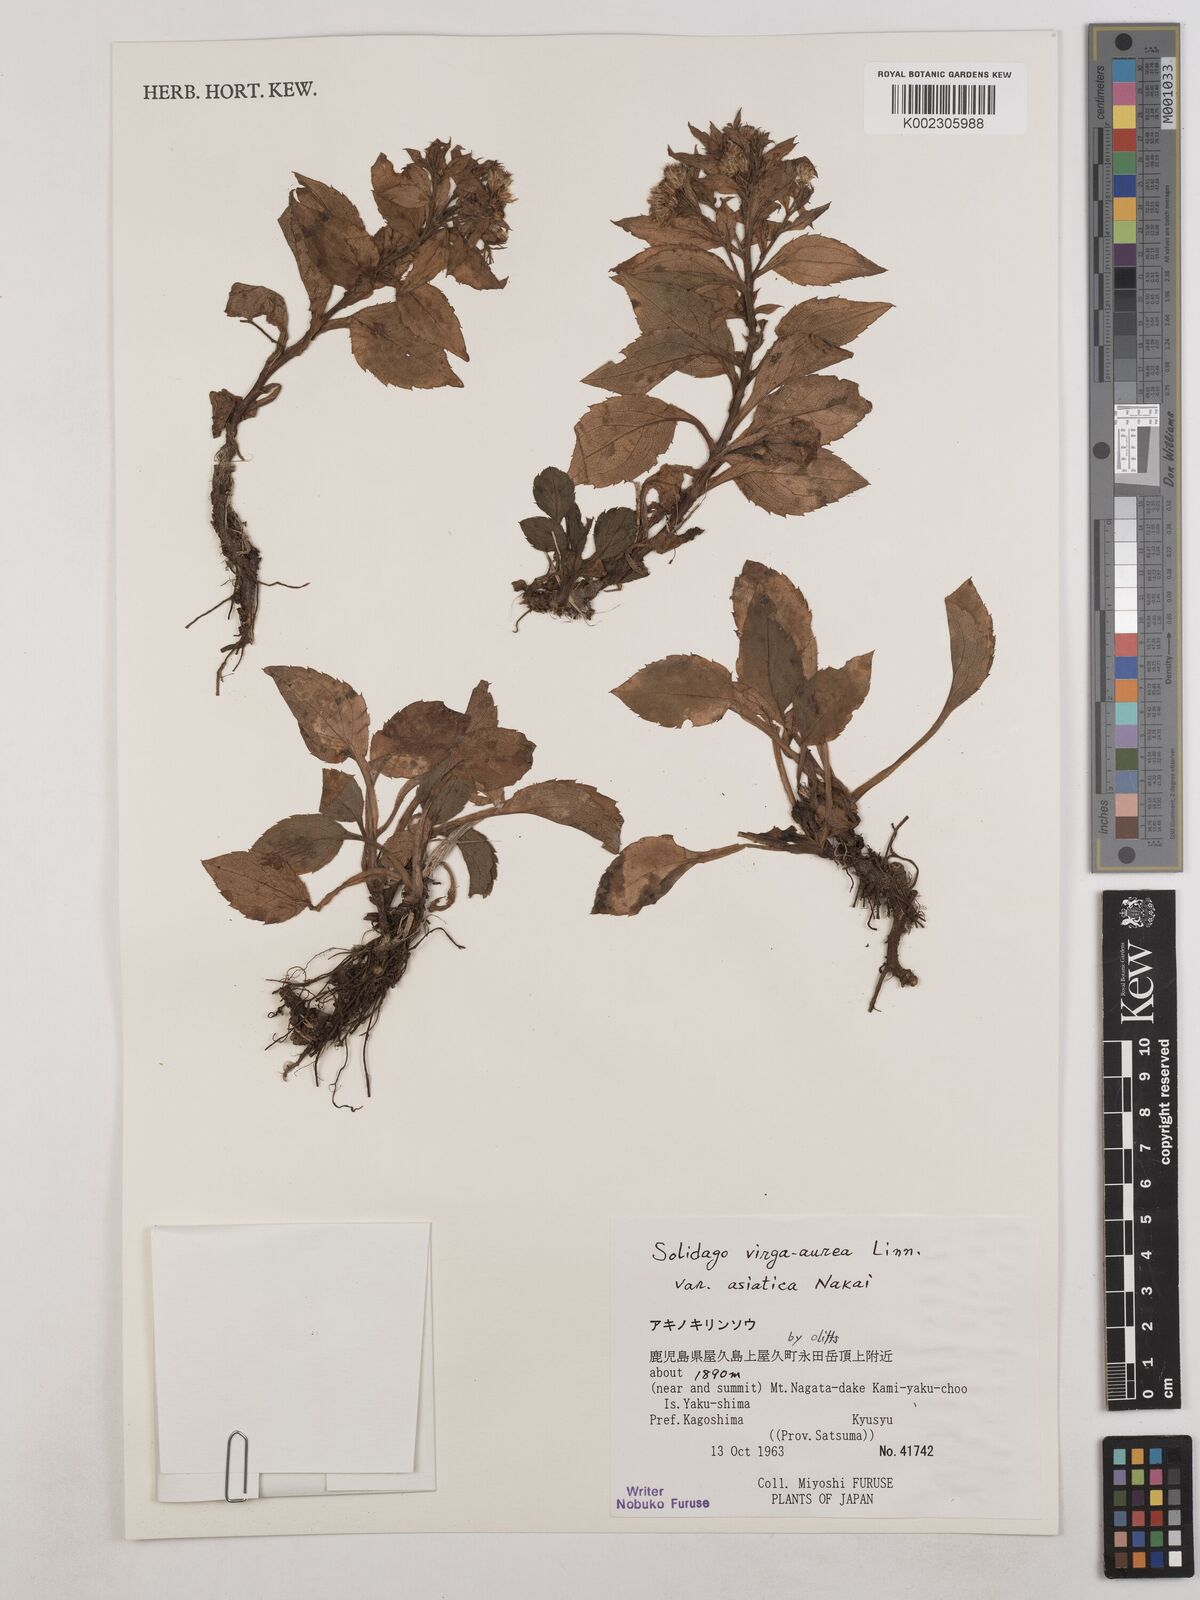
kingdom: Plantae
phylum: Tracheophyta
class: Magnoliopsida
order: Asterales
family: Asteraceae
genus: Solidago
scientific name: Solidago virgaurea
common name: Goldenrod
